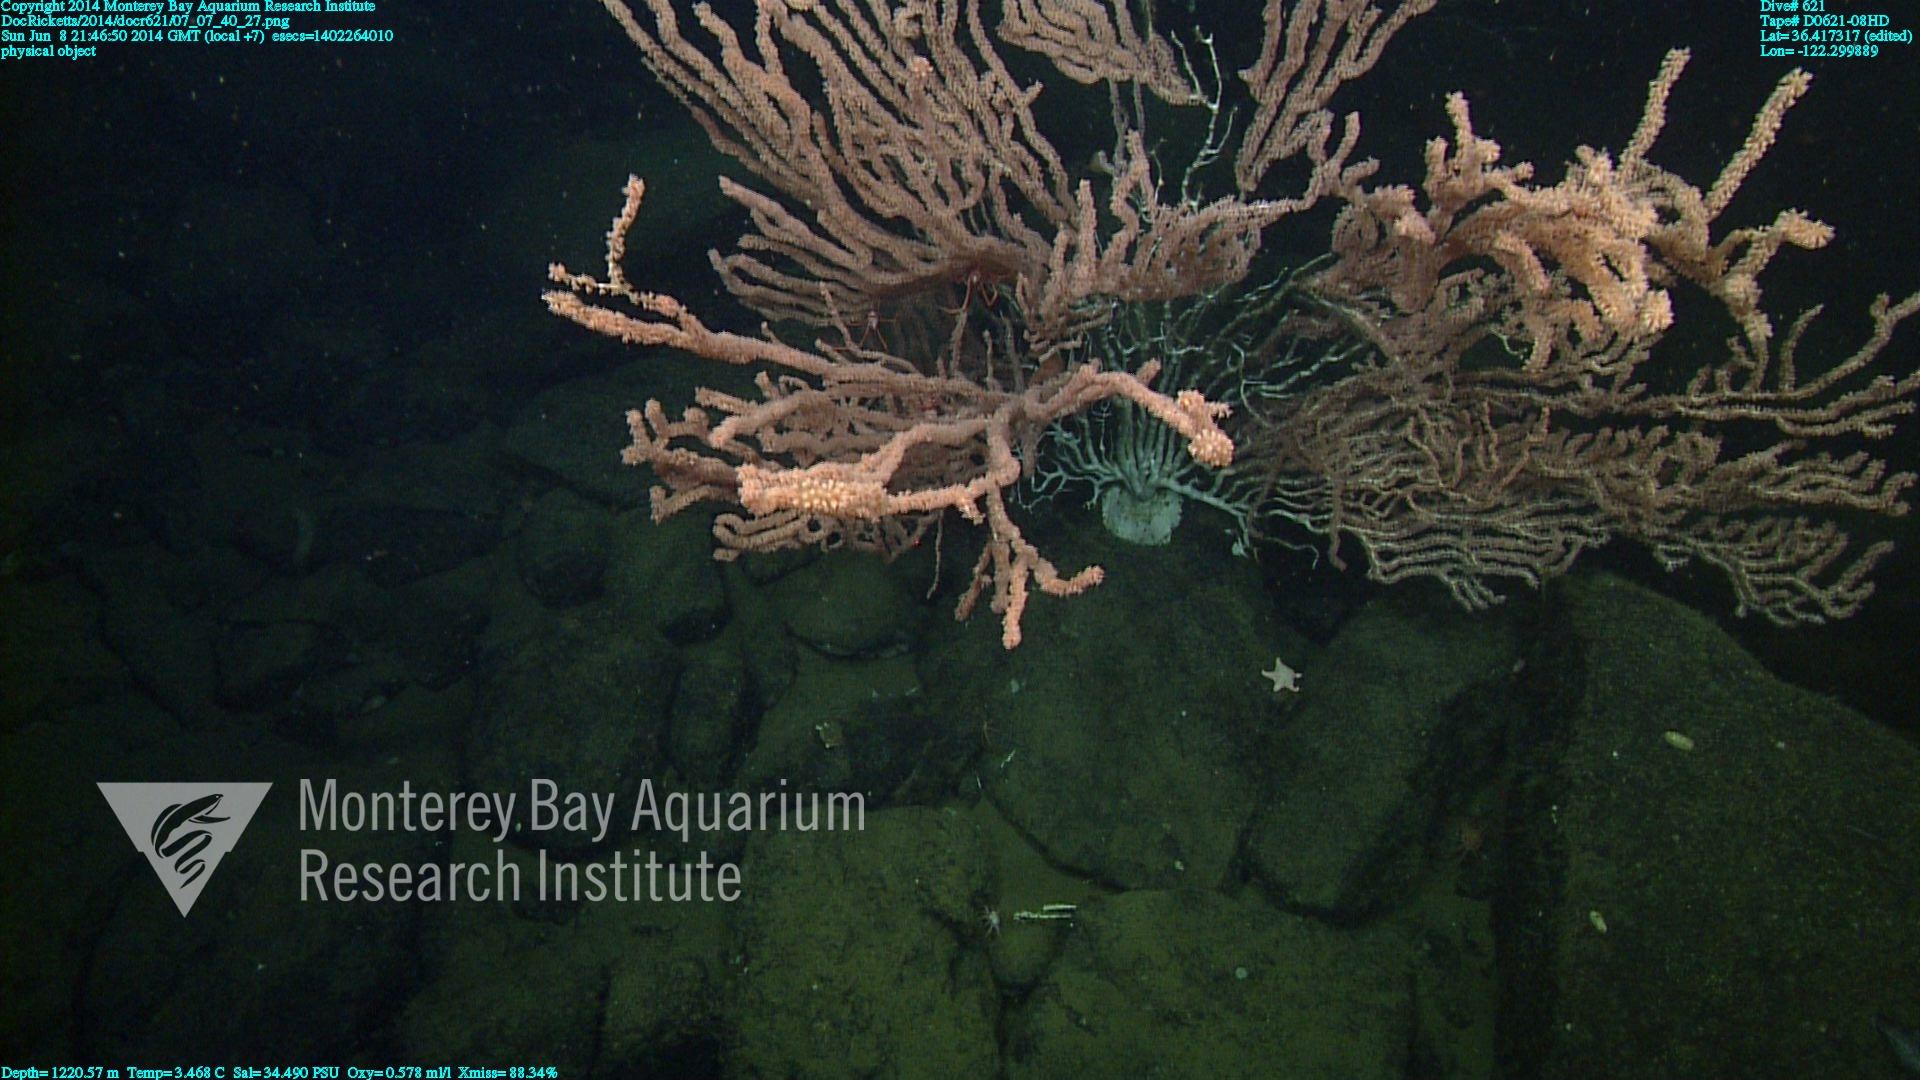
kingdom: Animalia
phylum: Cnidaria
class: Anthozoa
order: Scleralcyonacea
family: Keratoisididae
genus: Keratoisis
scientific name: Keratoisis
